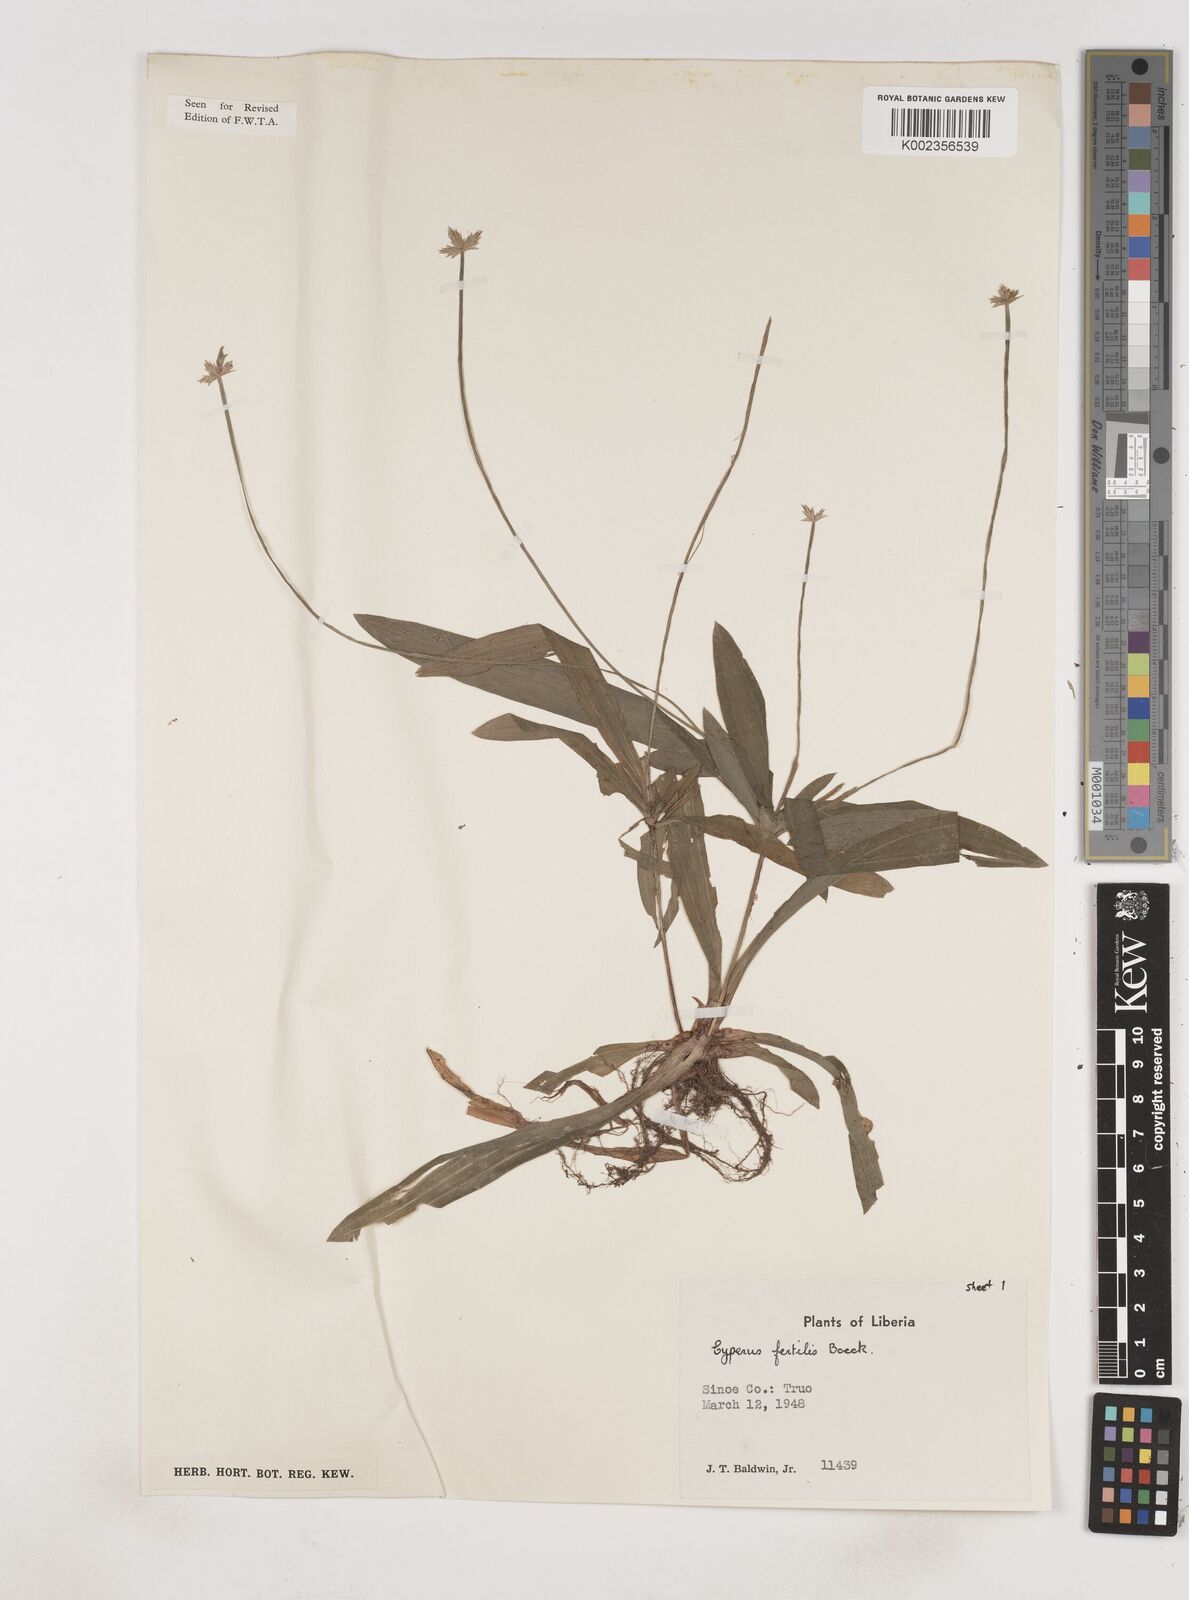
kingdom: Plantae
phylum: Tracheophyta
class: Liliopsida
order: Poales
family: Cyperaceae
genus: Cyperus
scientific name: Cyperus fertilis
